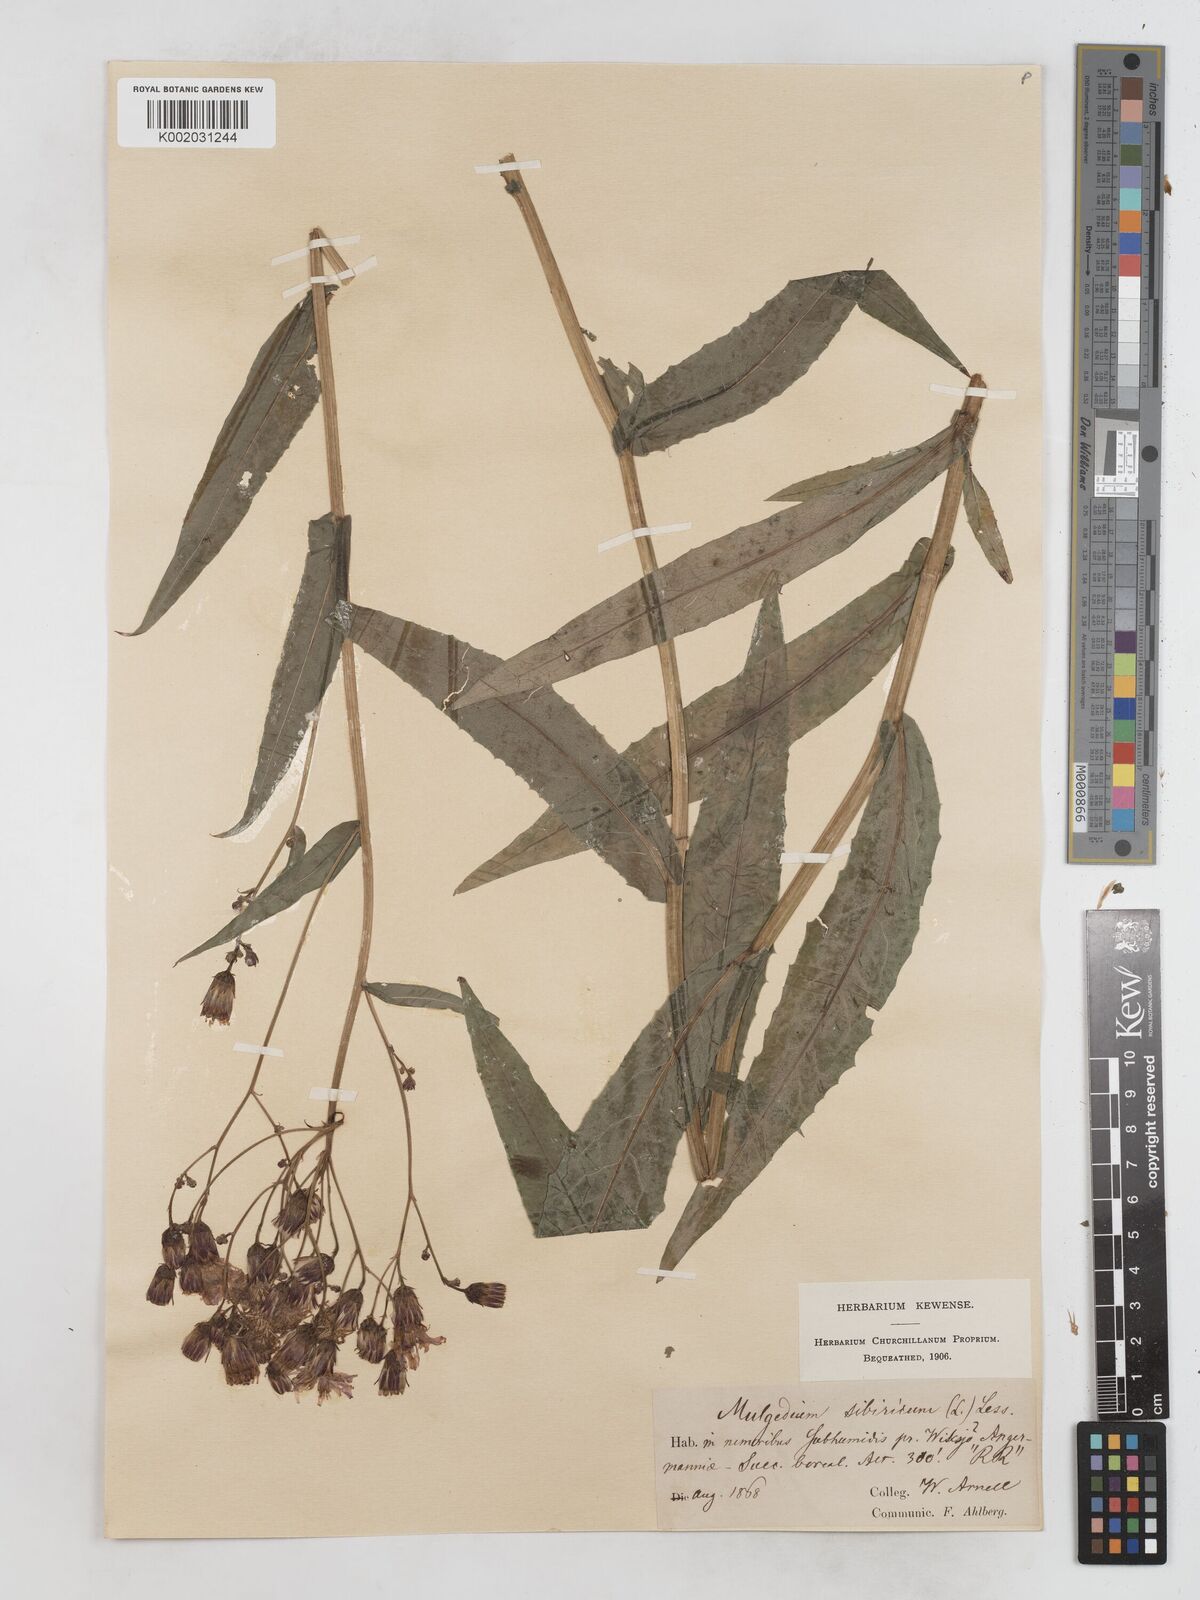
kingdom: Plantae
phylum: Tracheophyta
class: Magnoliopsida
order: Asterales
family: Asteraceae
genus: Lactuca
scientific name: Lactuca sibirica
